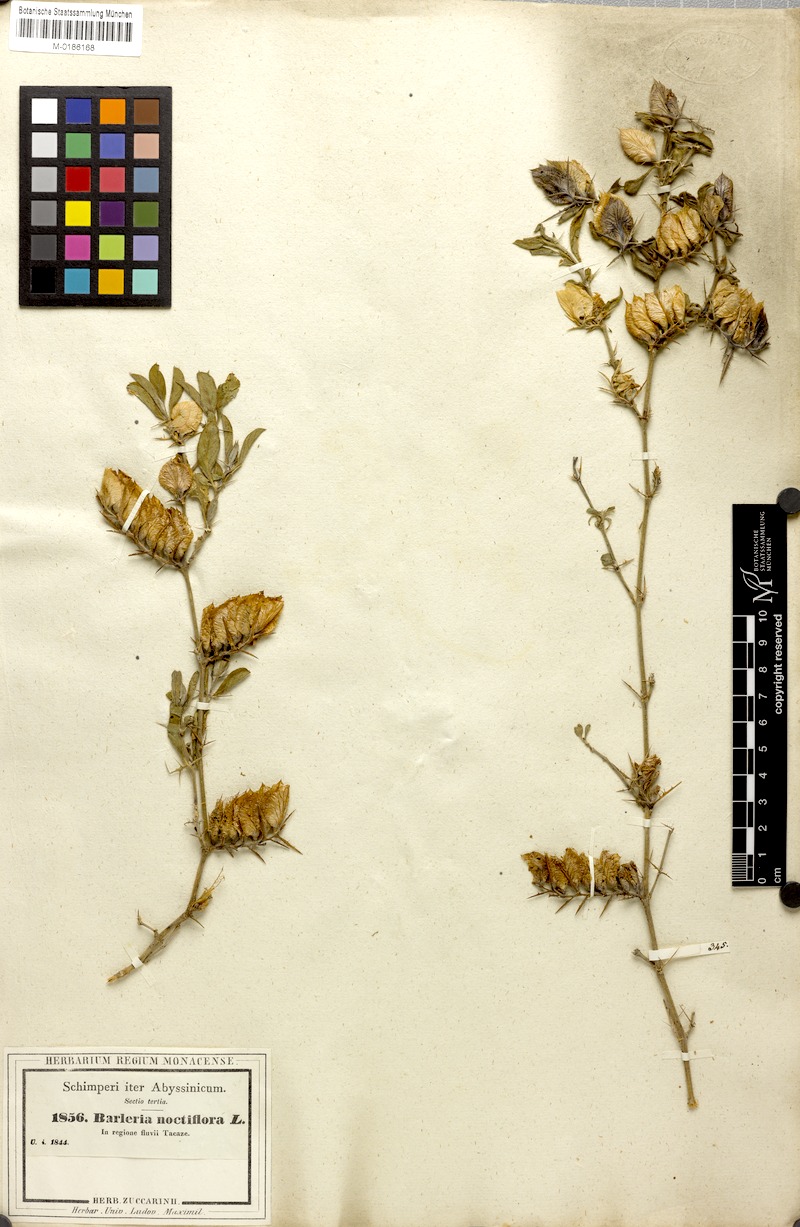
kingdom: Plantae
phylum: Tracheophyta
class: Magnoliopsida
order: Lamiales
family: Acanthaceae
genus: Barleria
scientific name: Barleria acanthoides
